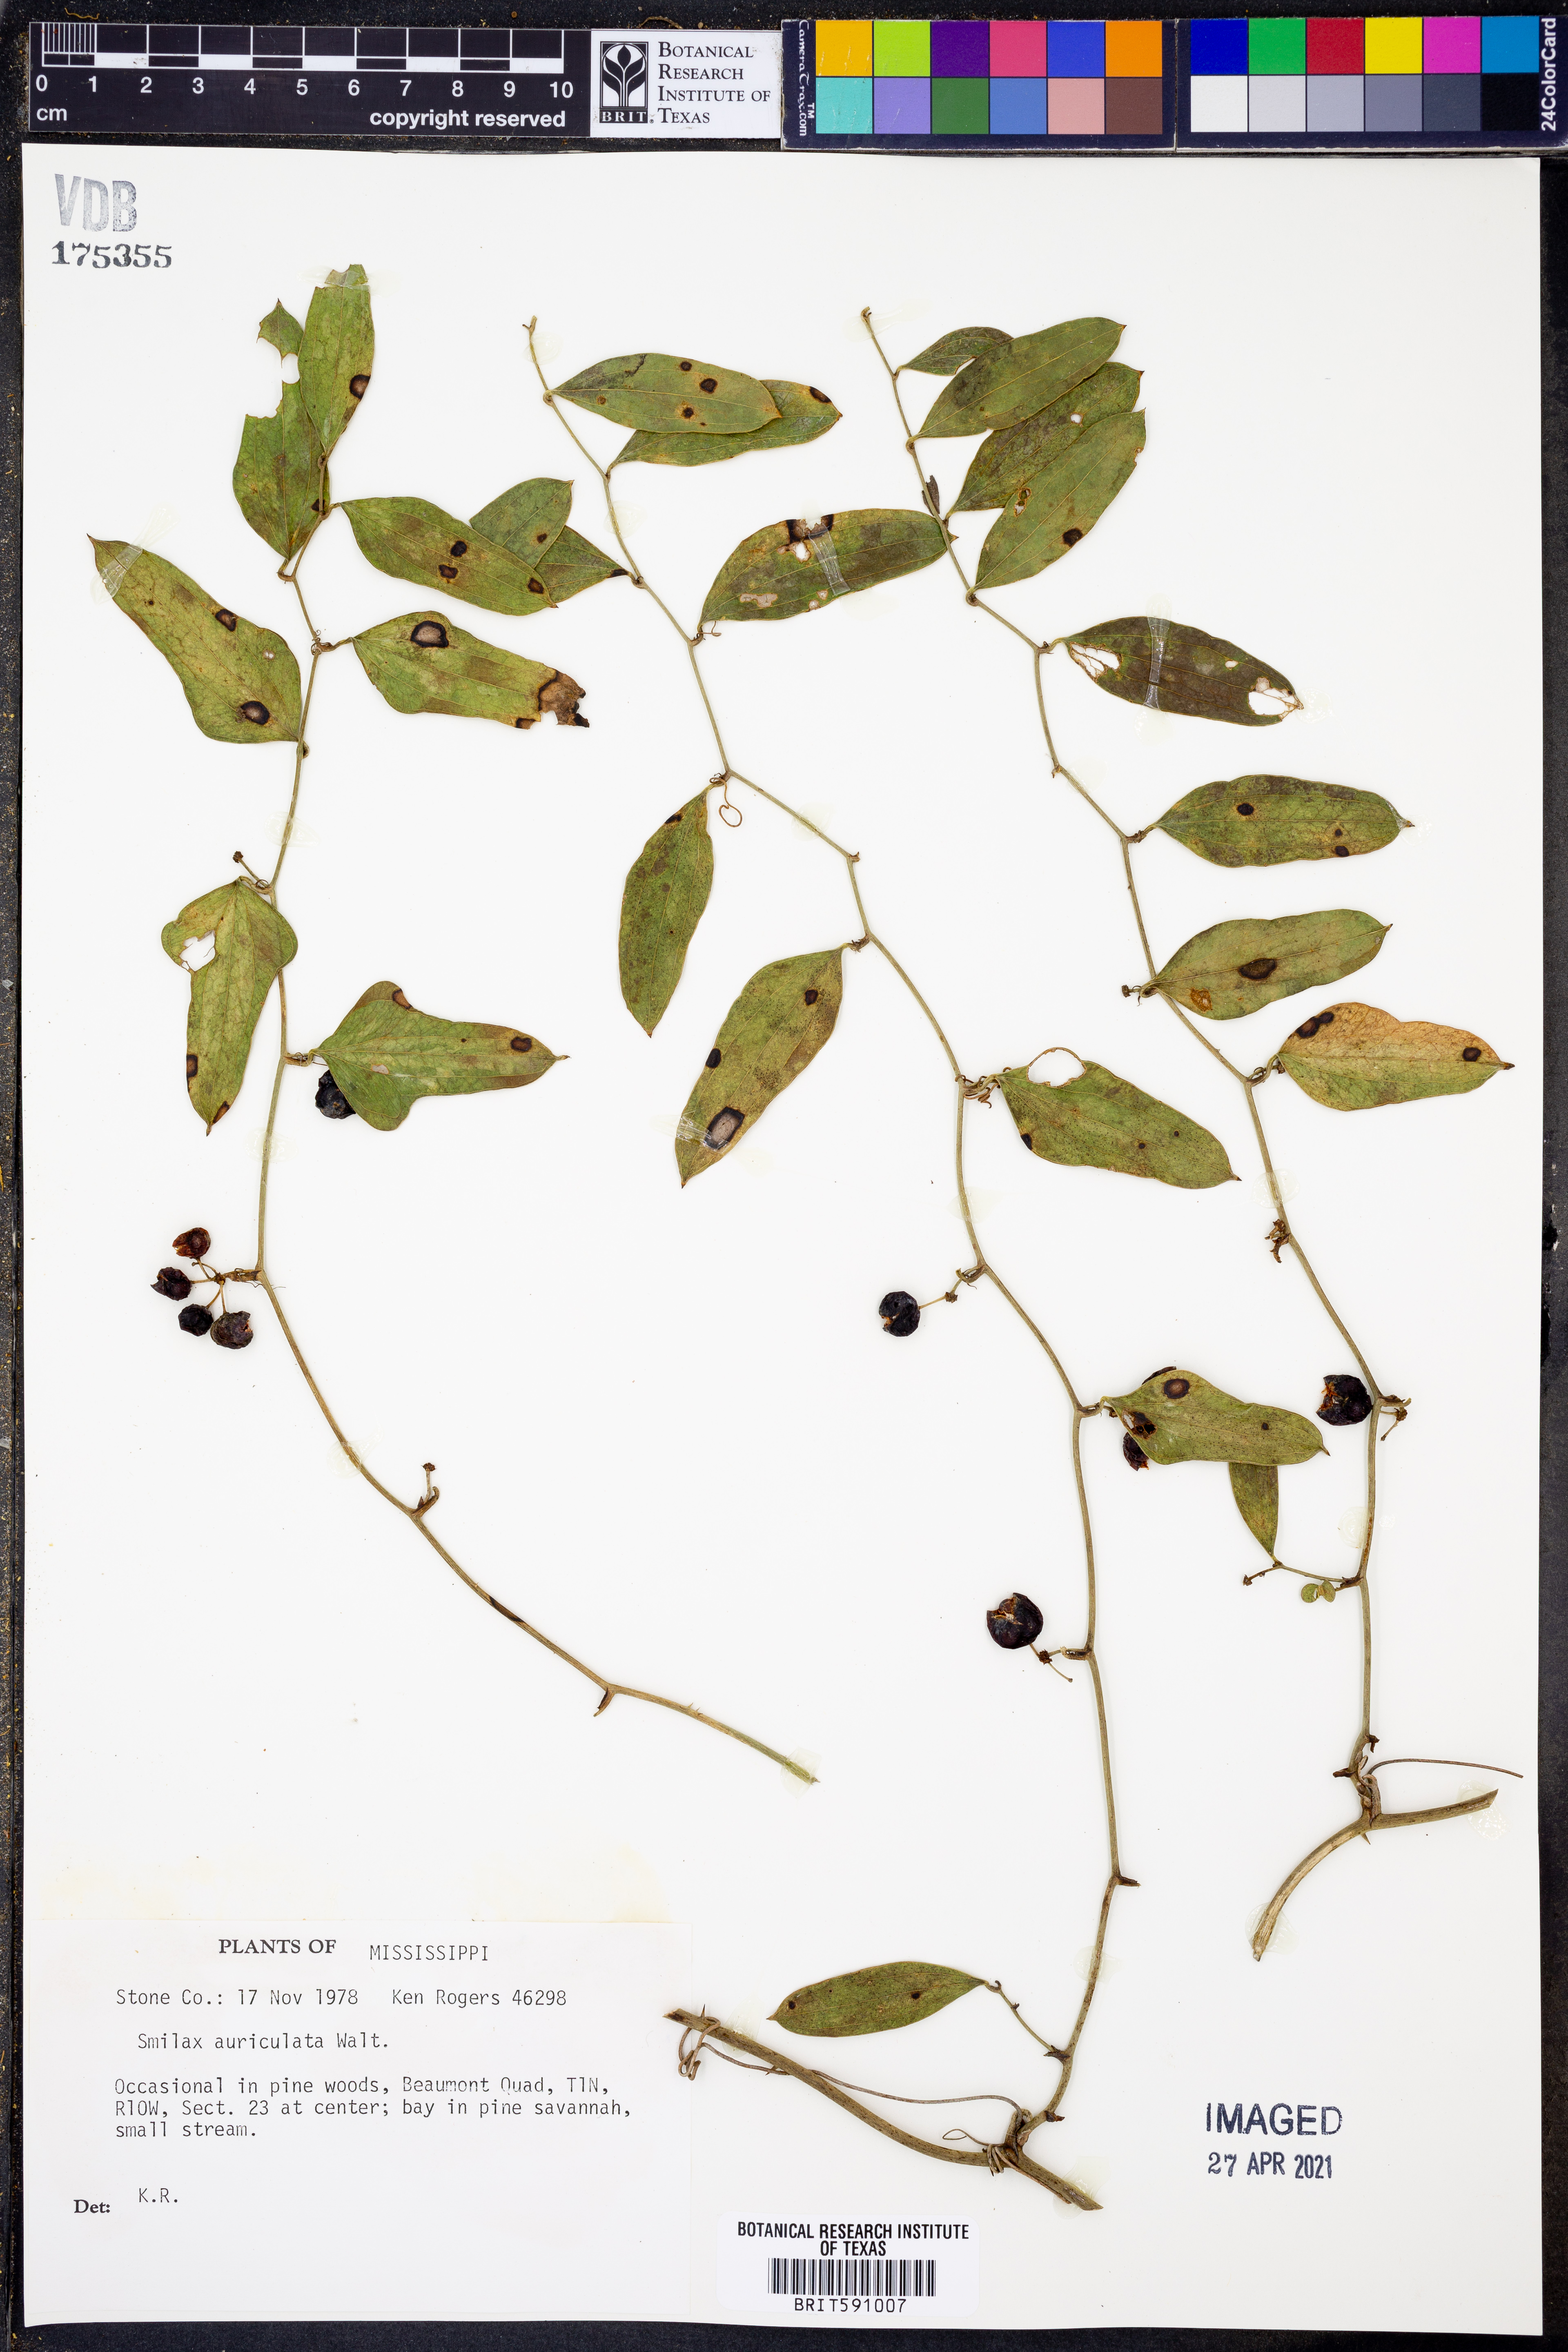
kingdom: Plantae
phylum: Tracheophyta
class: Liliopsida
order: Liliales
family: Smilacaceae
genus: Smilax
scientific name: Smilax auriculata
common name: Wild bamboo
